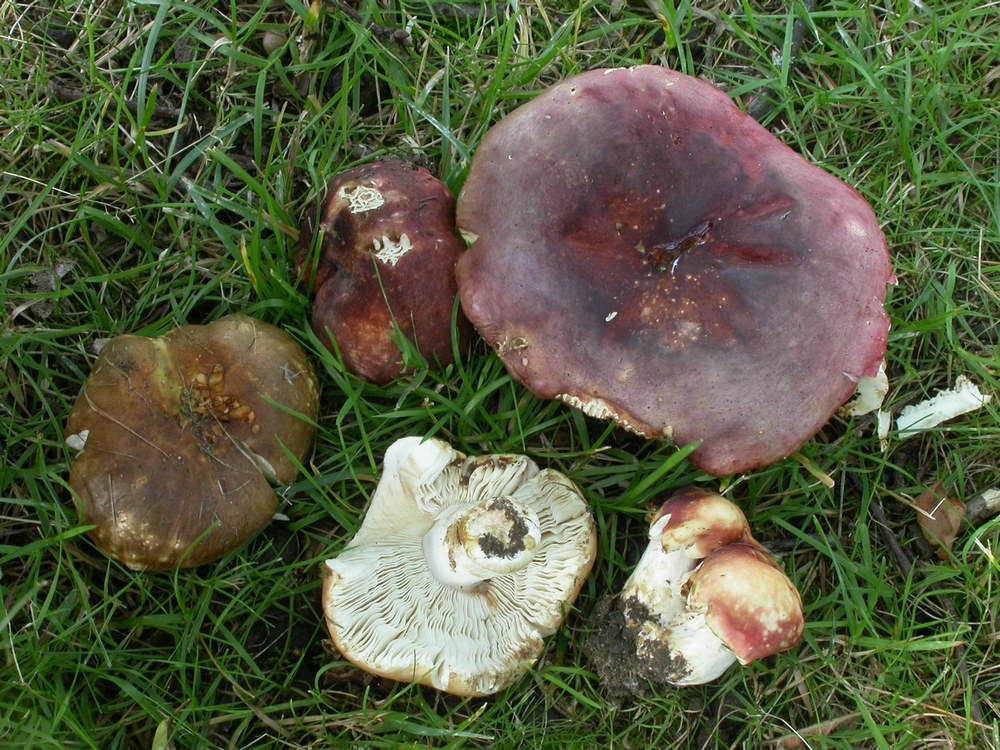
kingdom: Fungi
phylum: Basidiomycota
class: Agaricomycetes
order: Russulales
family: Russulaceae
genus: Russula
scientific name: Russula graveolens
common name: bugtet skørhat
